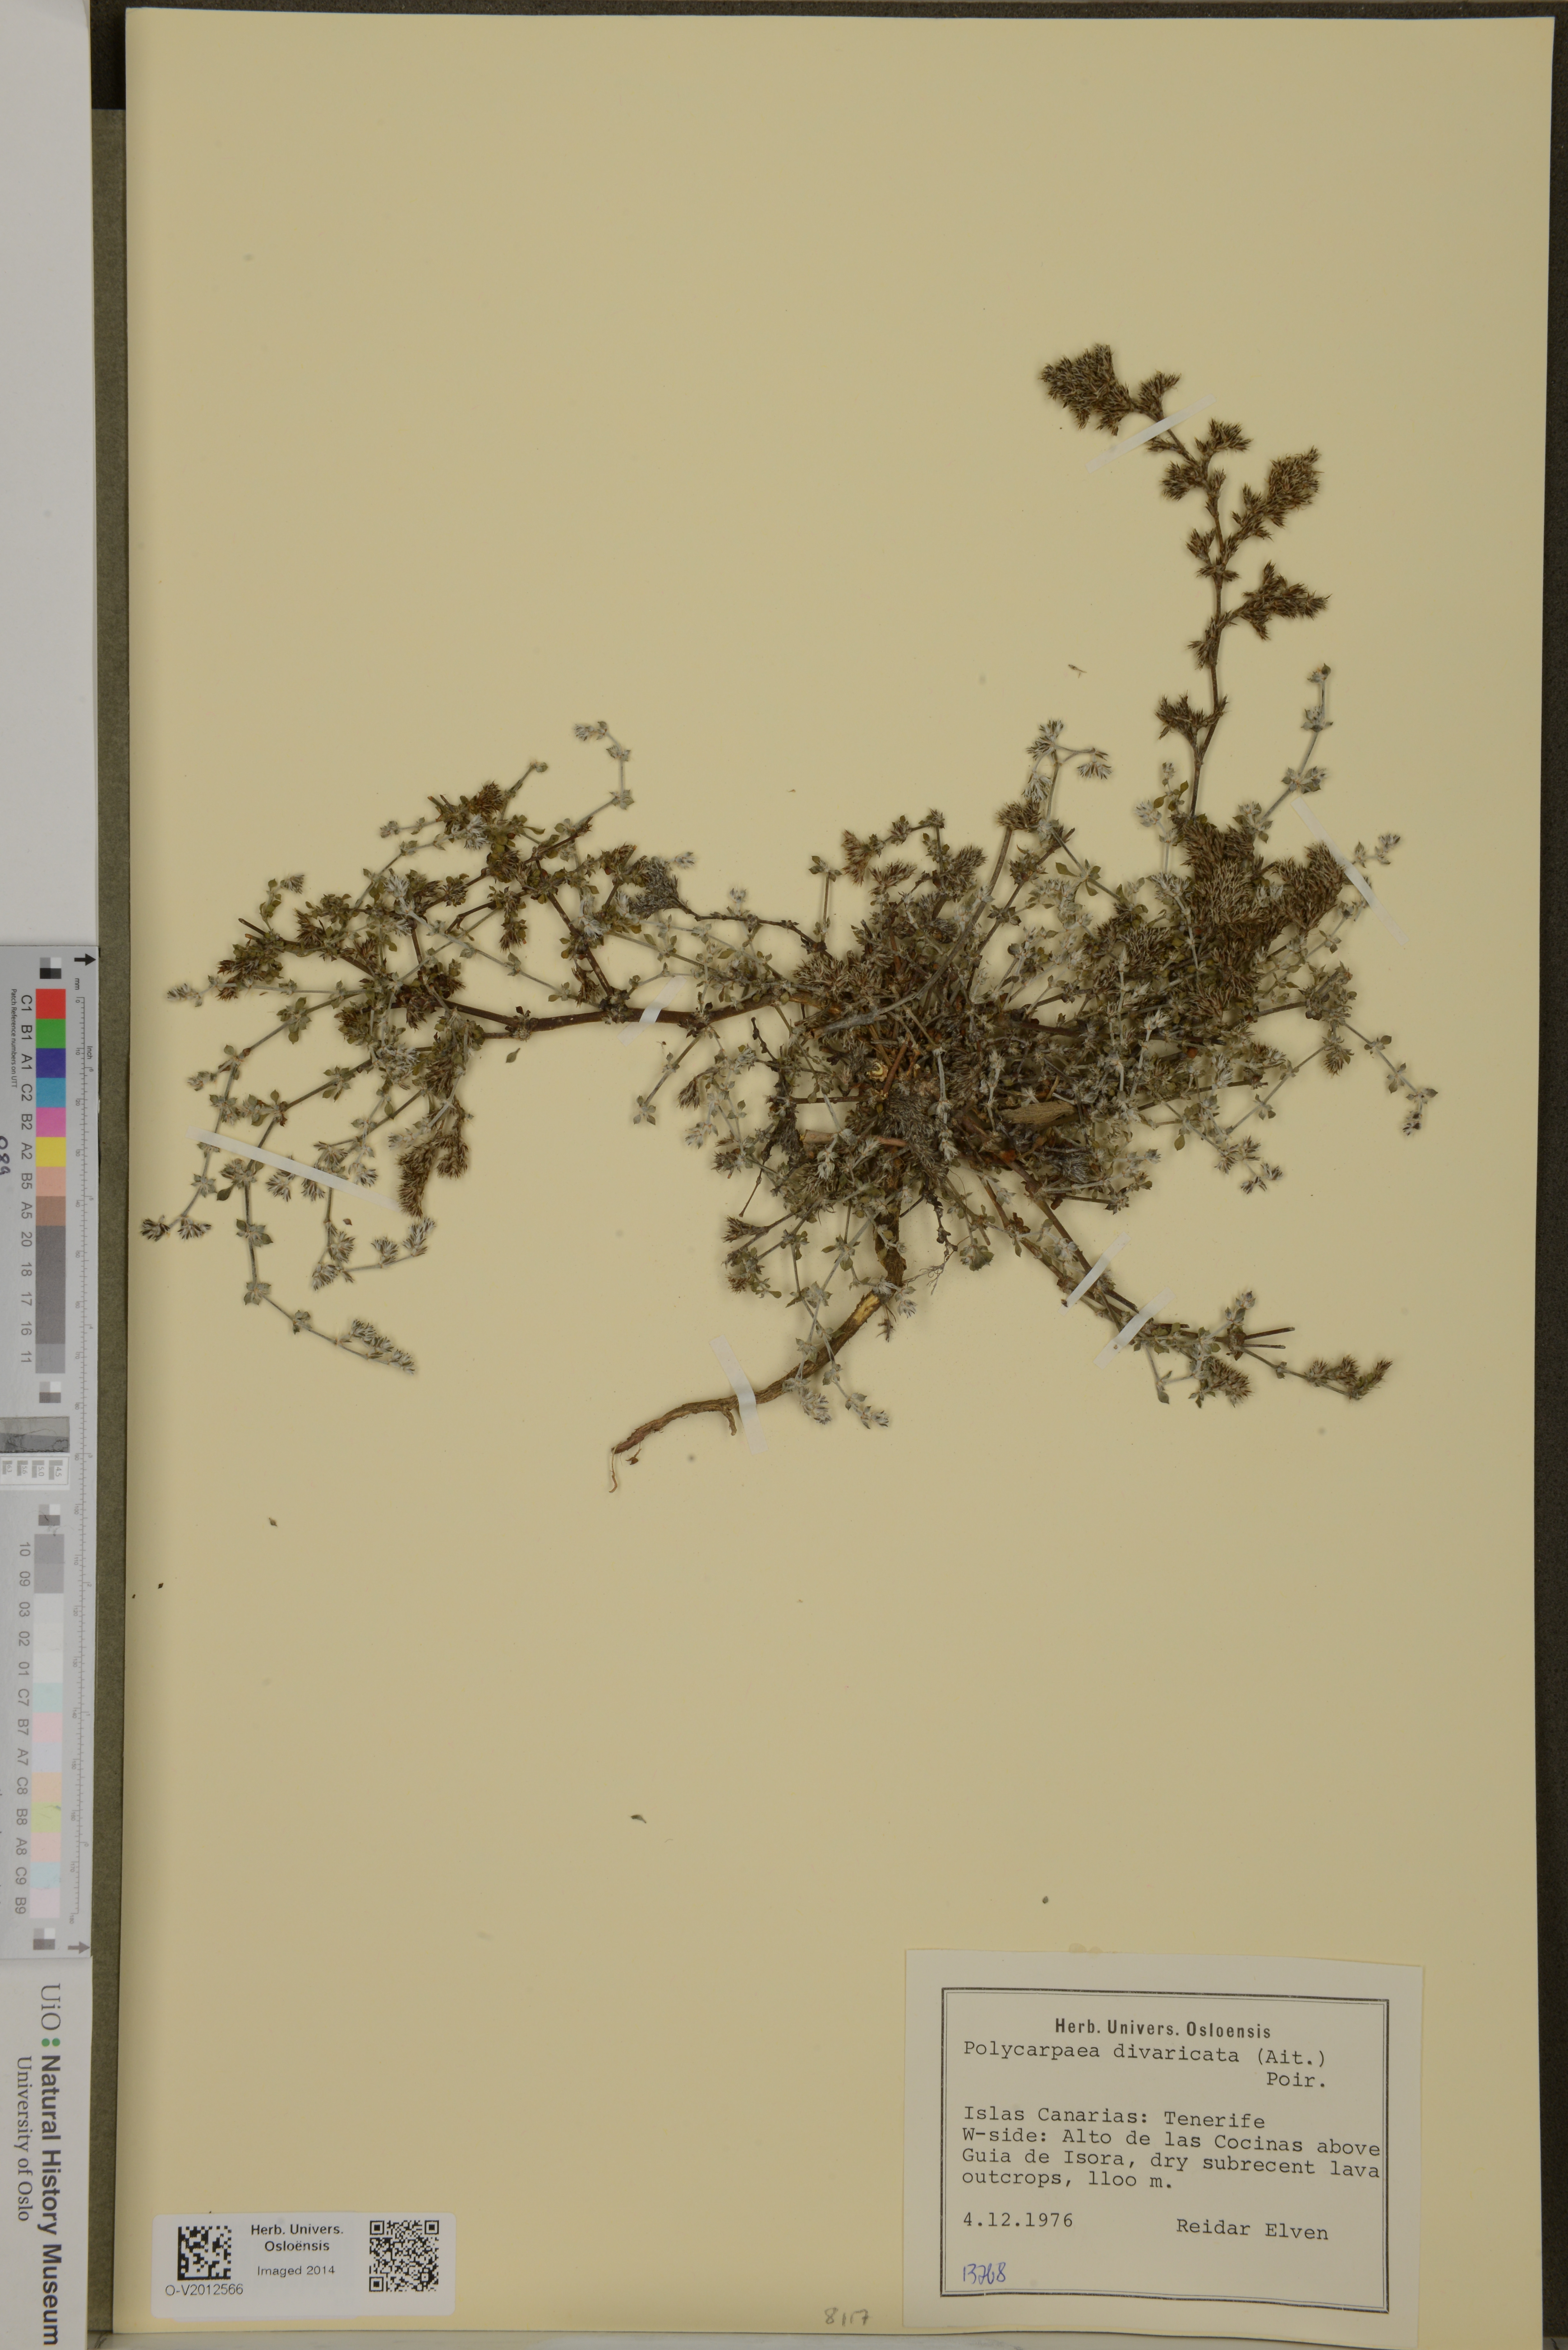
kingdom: Plantae
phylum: Tracheophyta
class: Magnoliopsida
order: Caryophyllales
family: Caryophyllaceae
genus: Polycarpaea
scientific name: Polycarpaea divaricata
